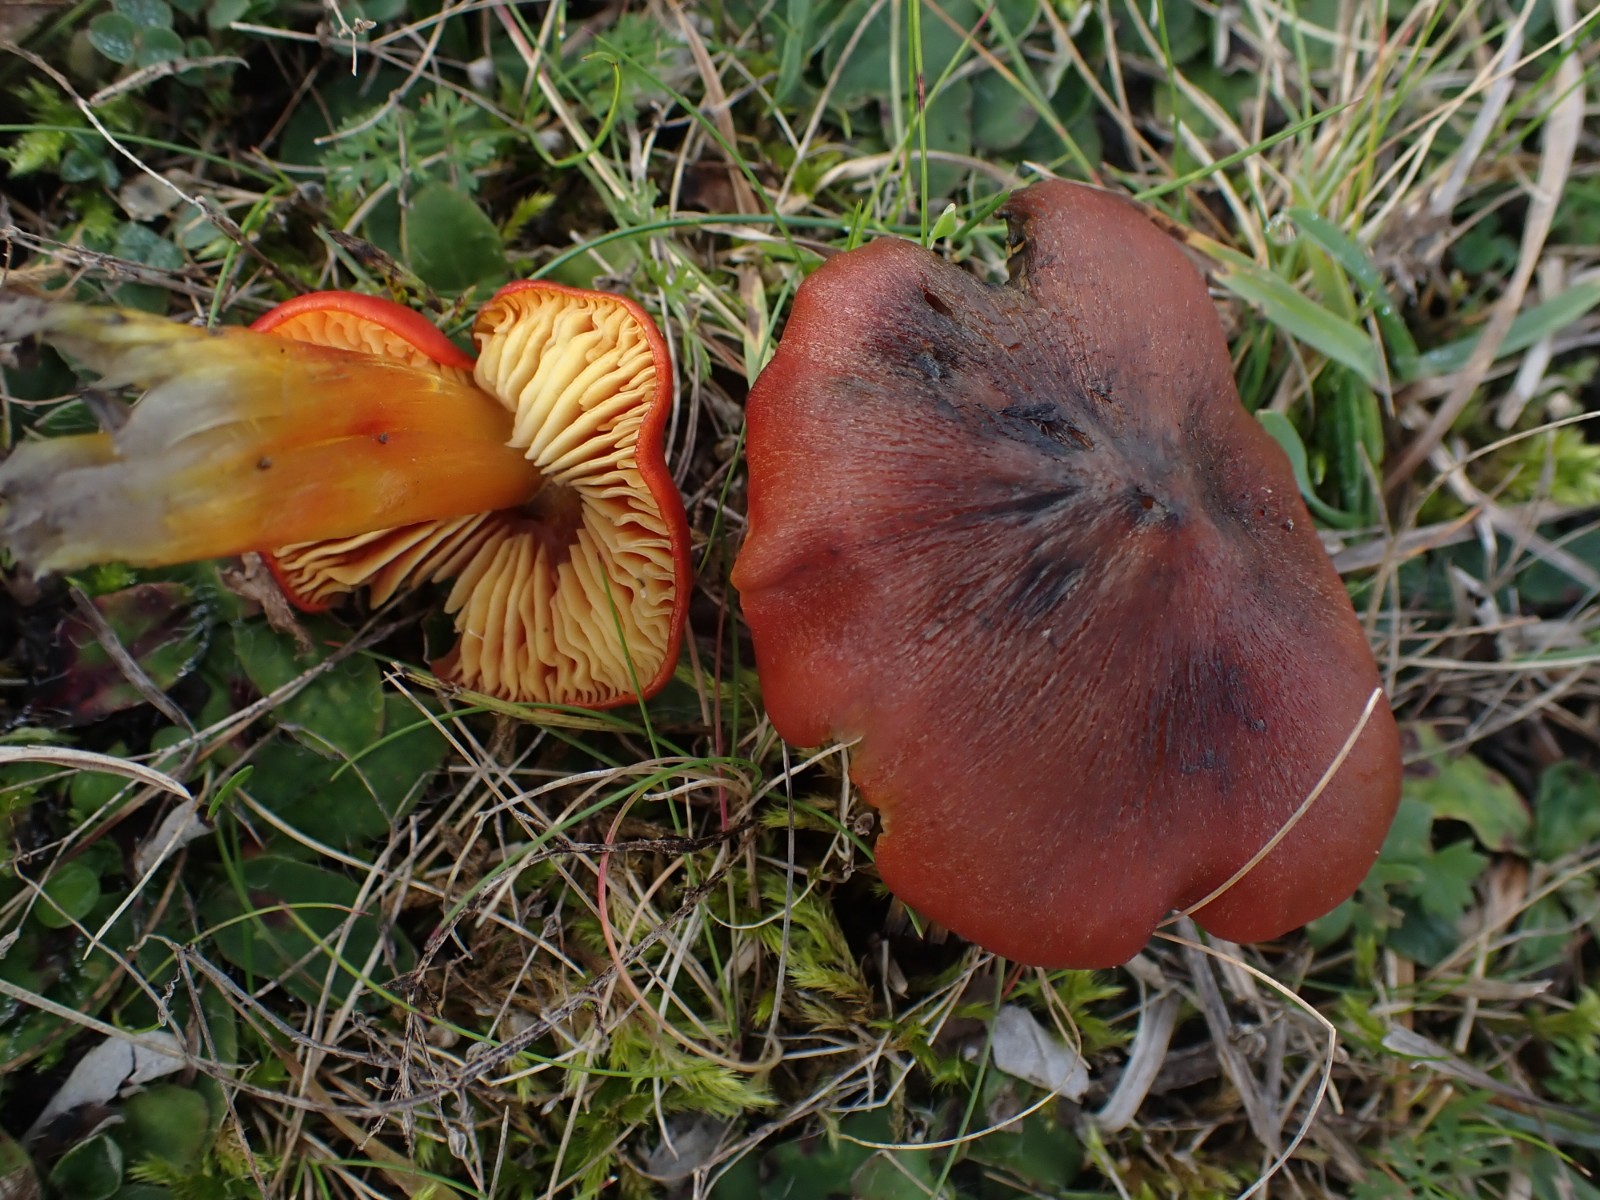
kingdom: Fungi
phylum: Basidiomycota
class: Agaricomycetes
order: Agaricales
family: Hygrophoraceae
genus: Hygrocybe
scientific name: Hygrocybe conica
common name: kegle-vokshat
